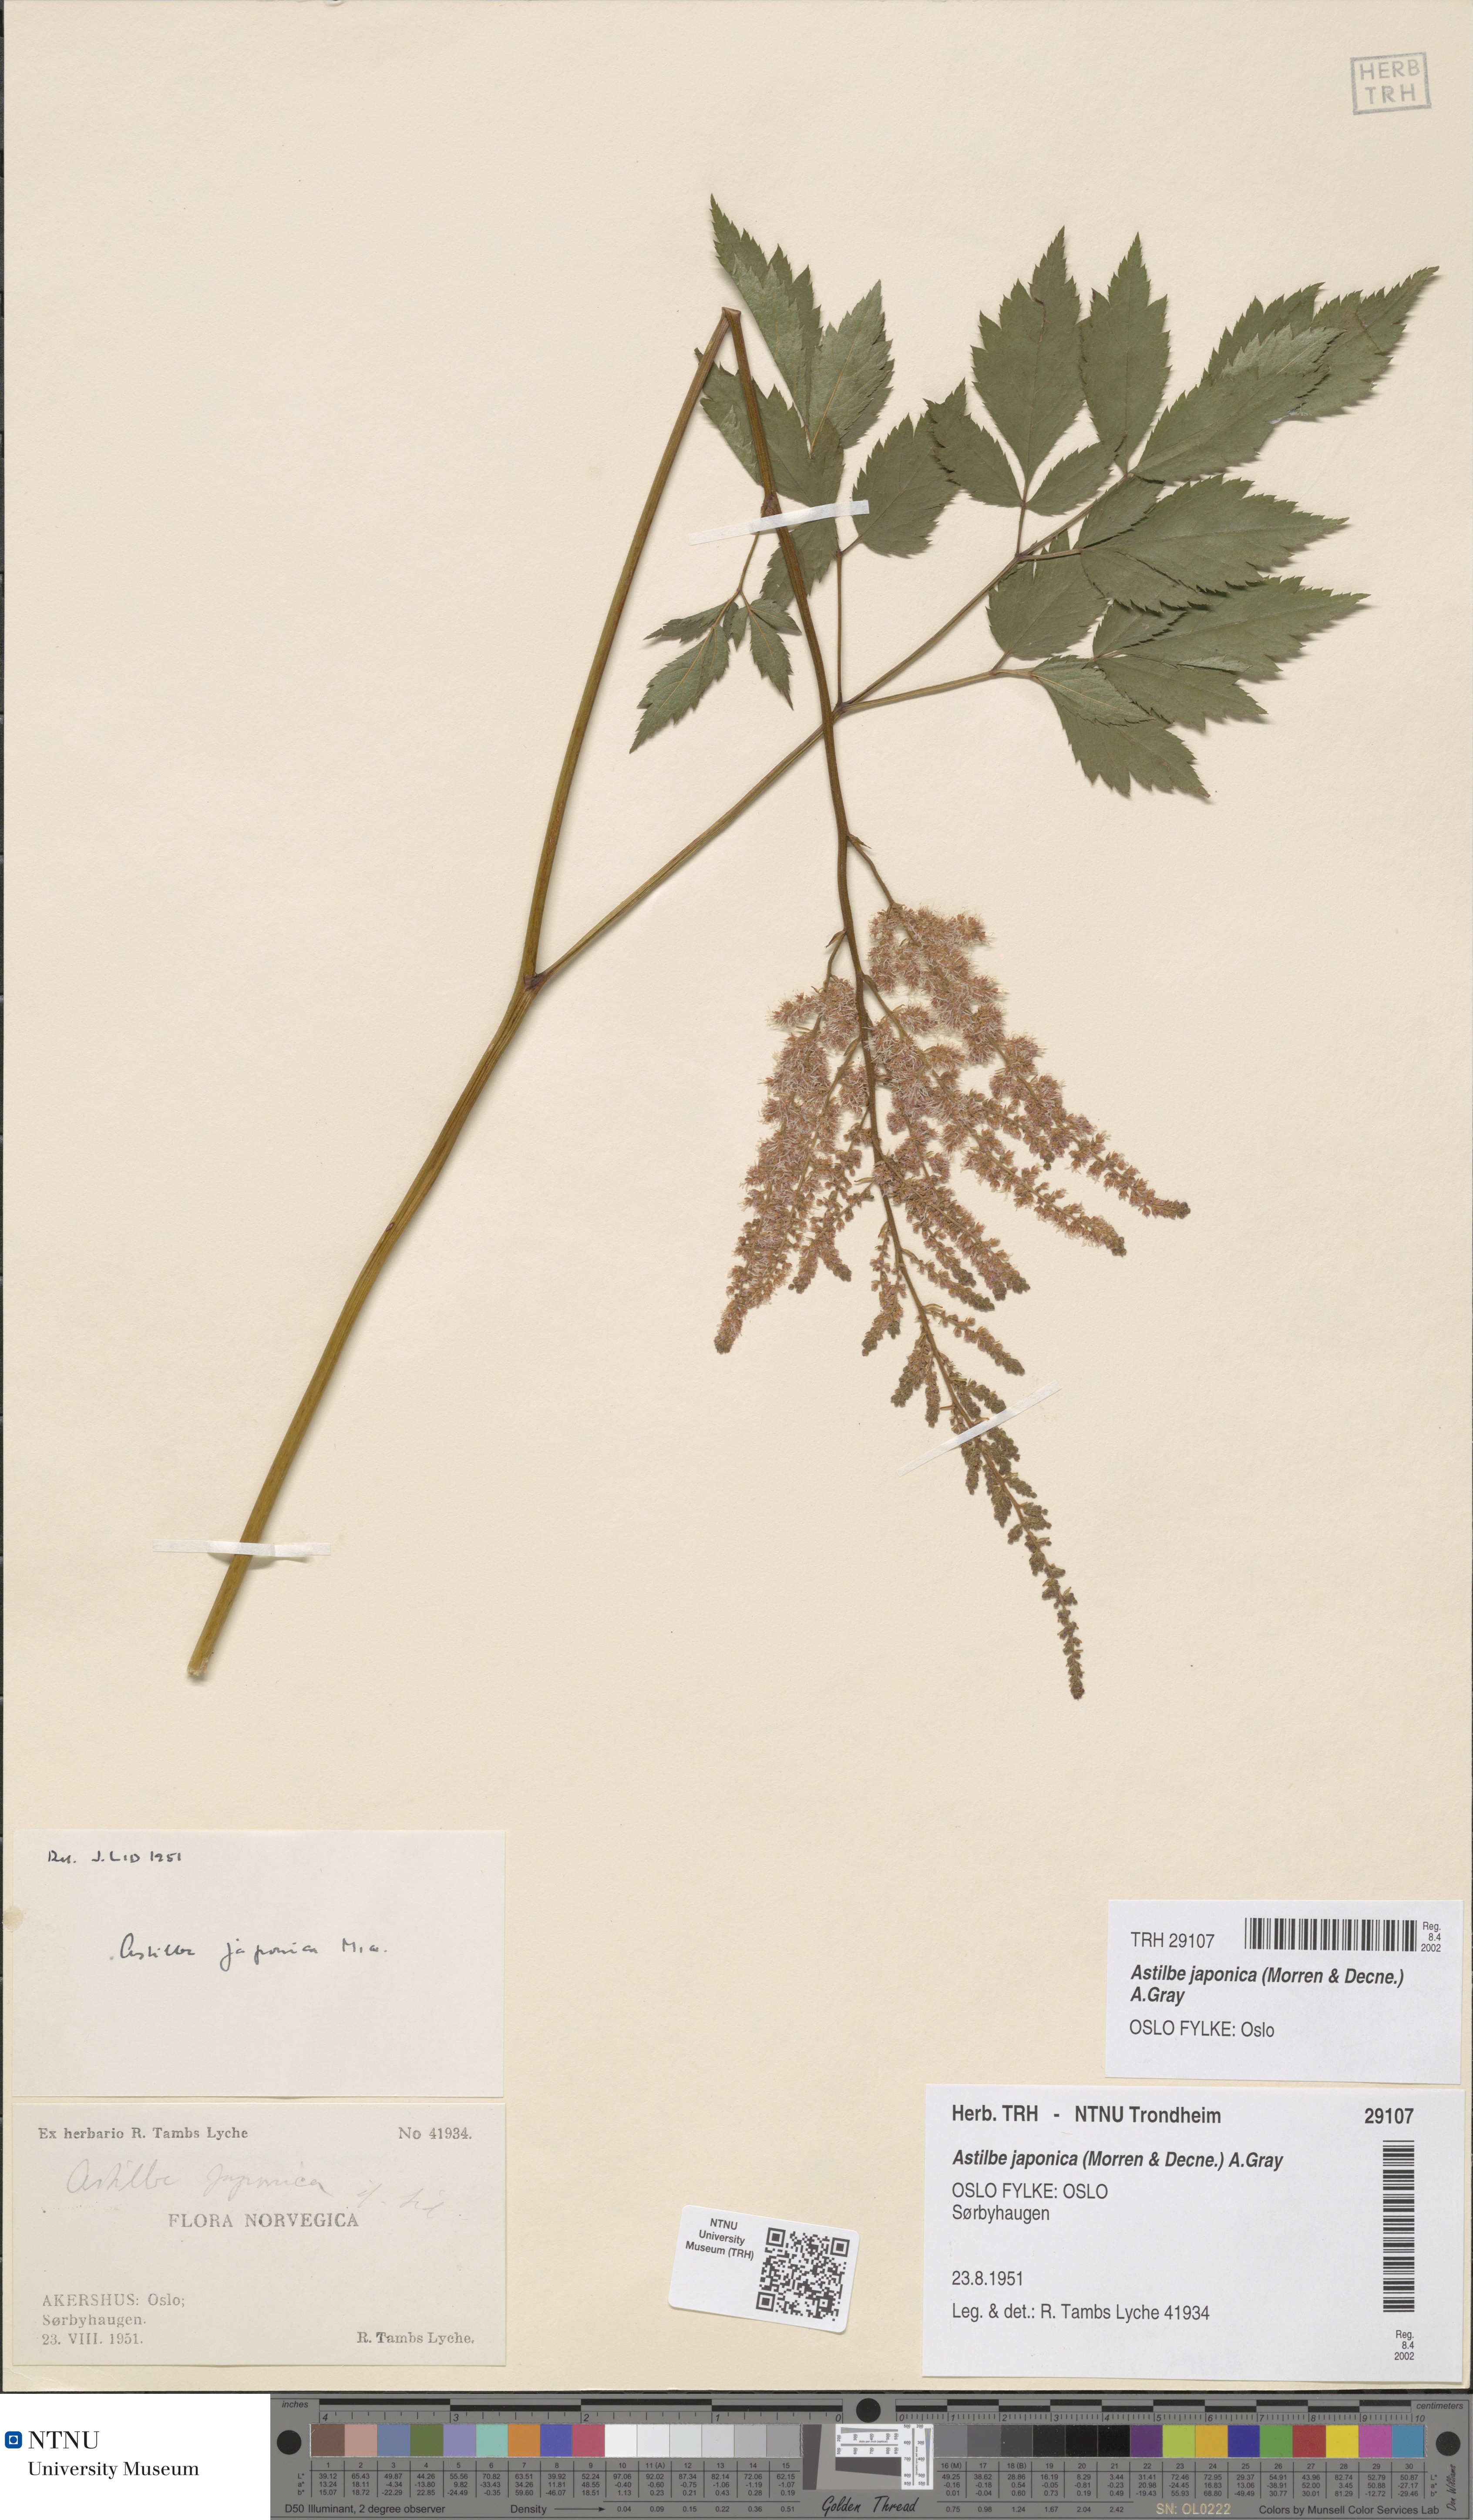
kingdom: Plantae
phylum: Tracheophyta
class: Magnoliopsida
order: Saxifragales
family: Saxifragaceae
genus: Astilbe
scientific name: Astilbe rosea
